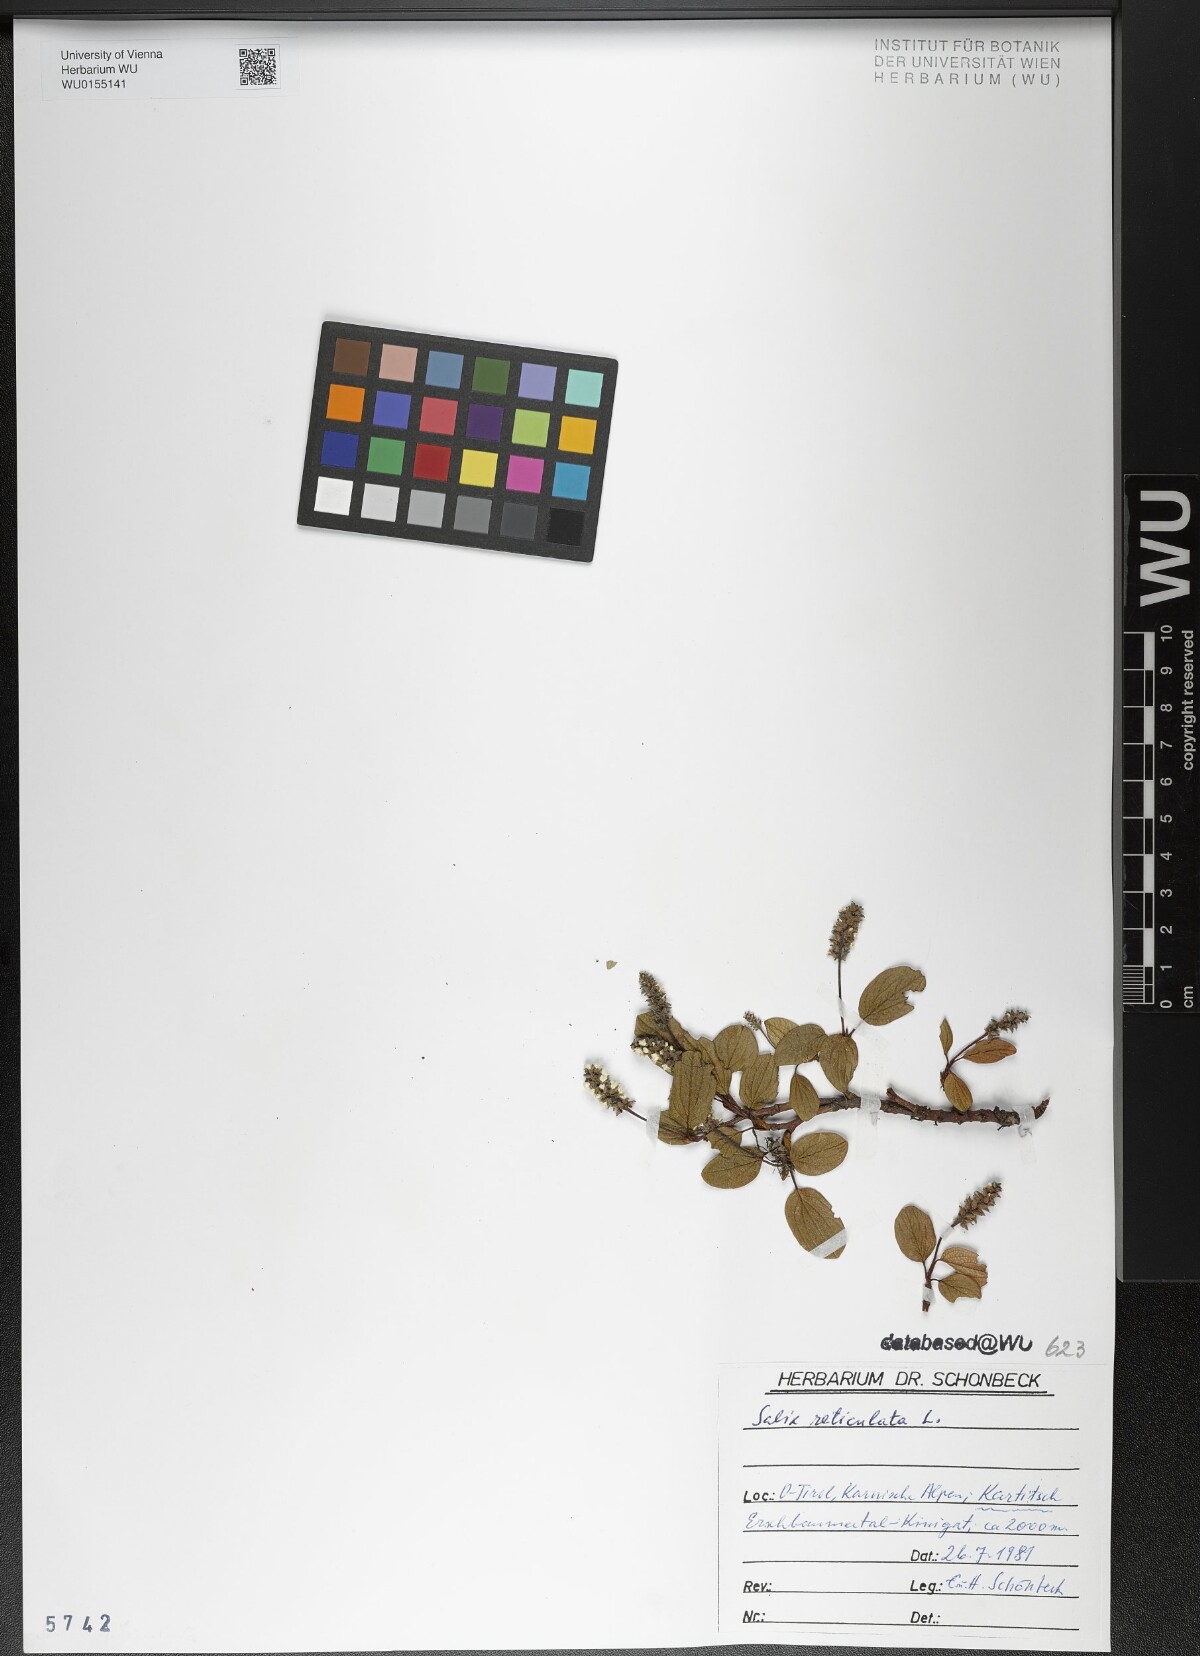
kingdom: Plantae
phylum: Tracheophyta
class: Magnoliopsida
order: Malpighiales
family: Salicaceae
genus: Salix
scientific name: Salix reticulata
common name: Net-leaved willow
